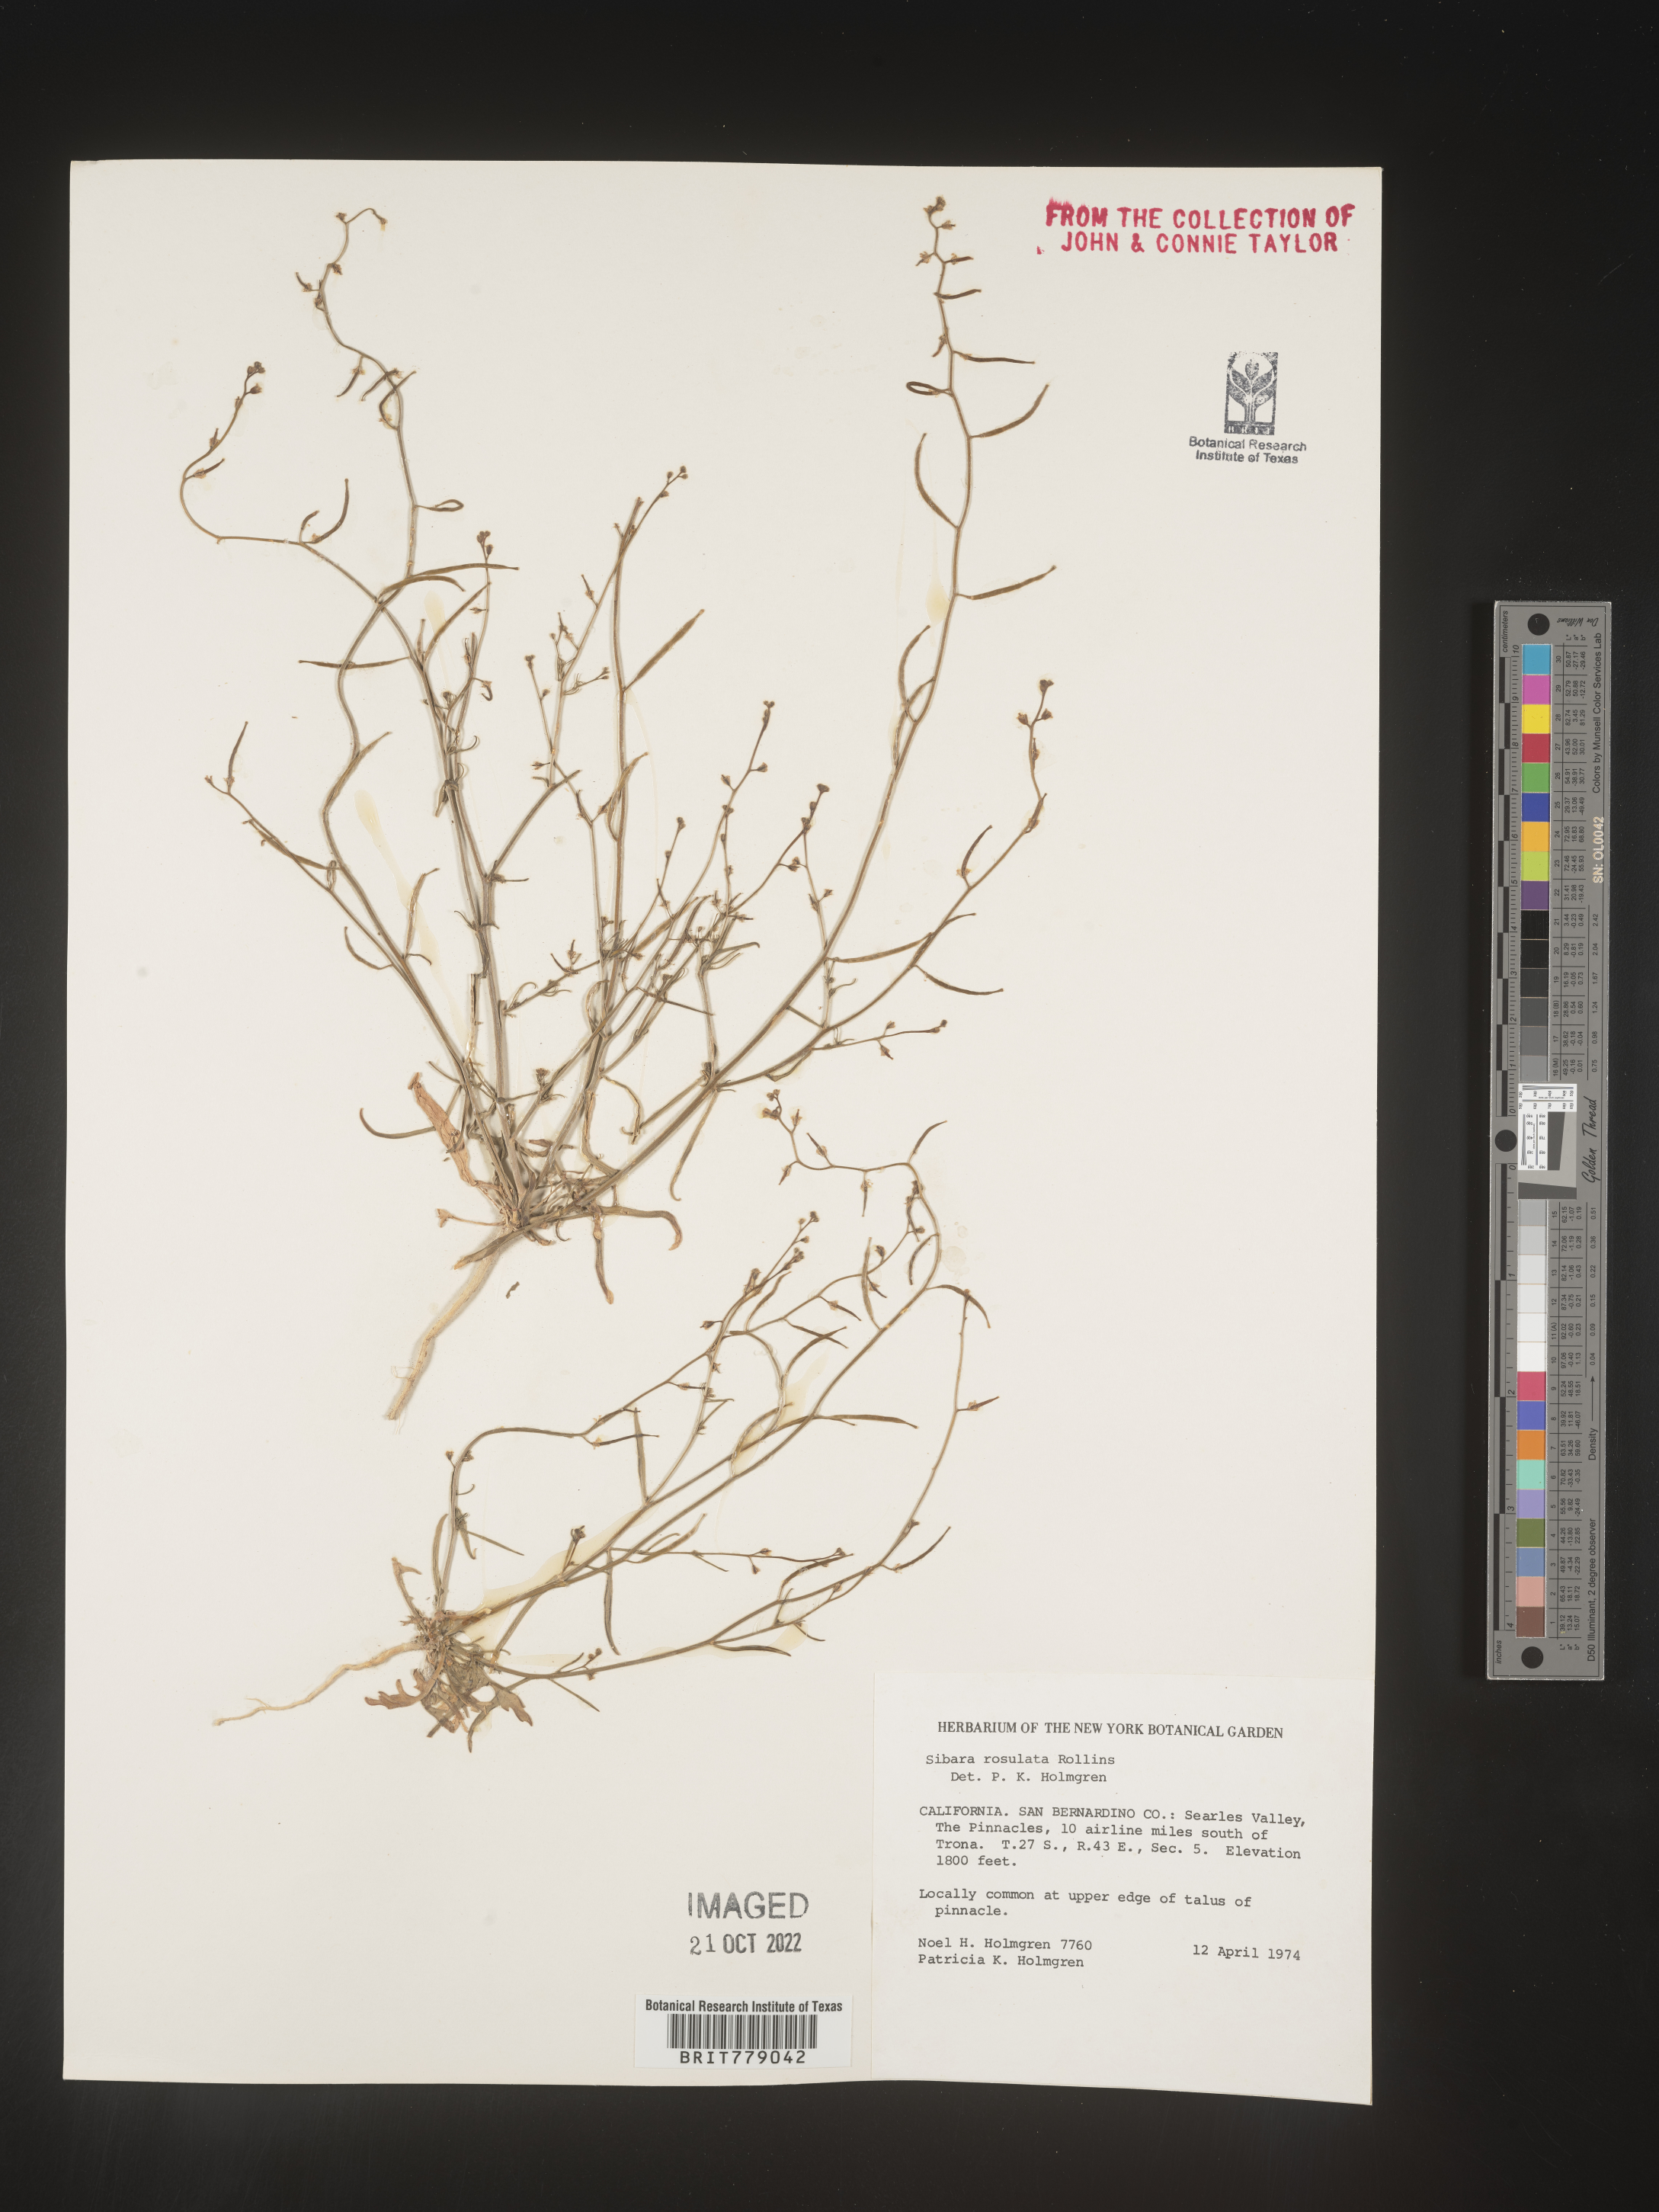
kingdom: Plantae
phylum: Tracheophyta
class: Magnoliopsida
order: Brassicales
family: Brassicaceae
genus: Sibara
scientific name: Sibara
